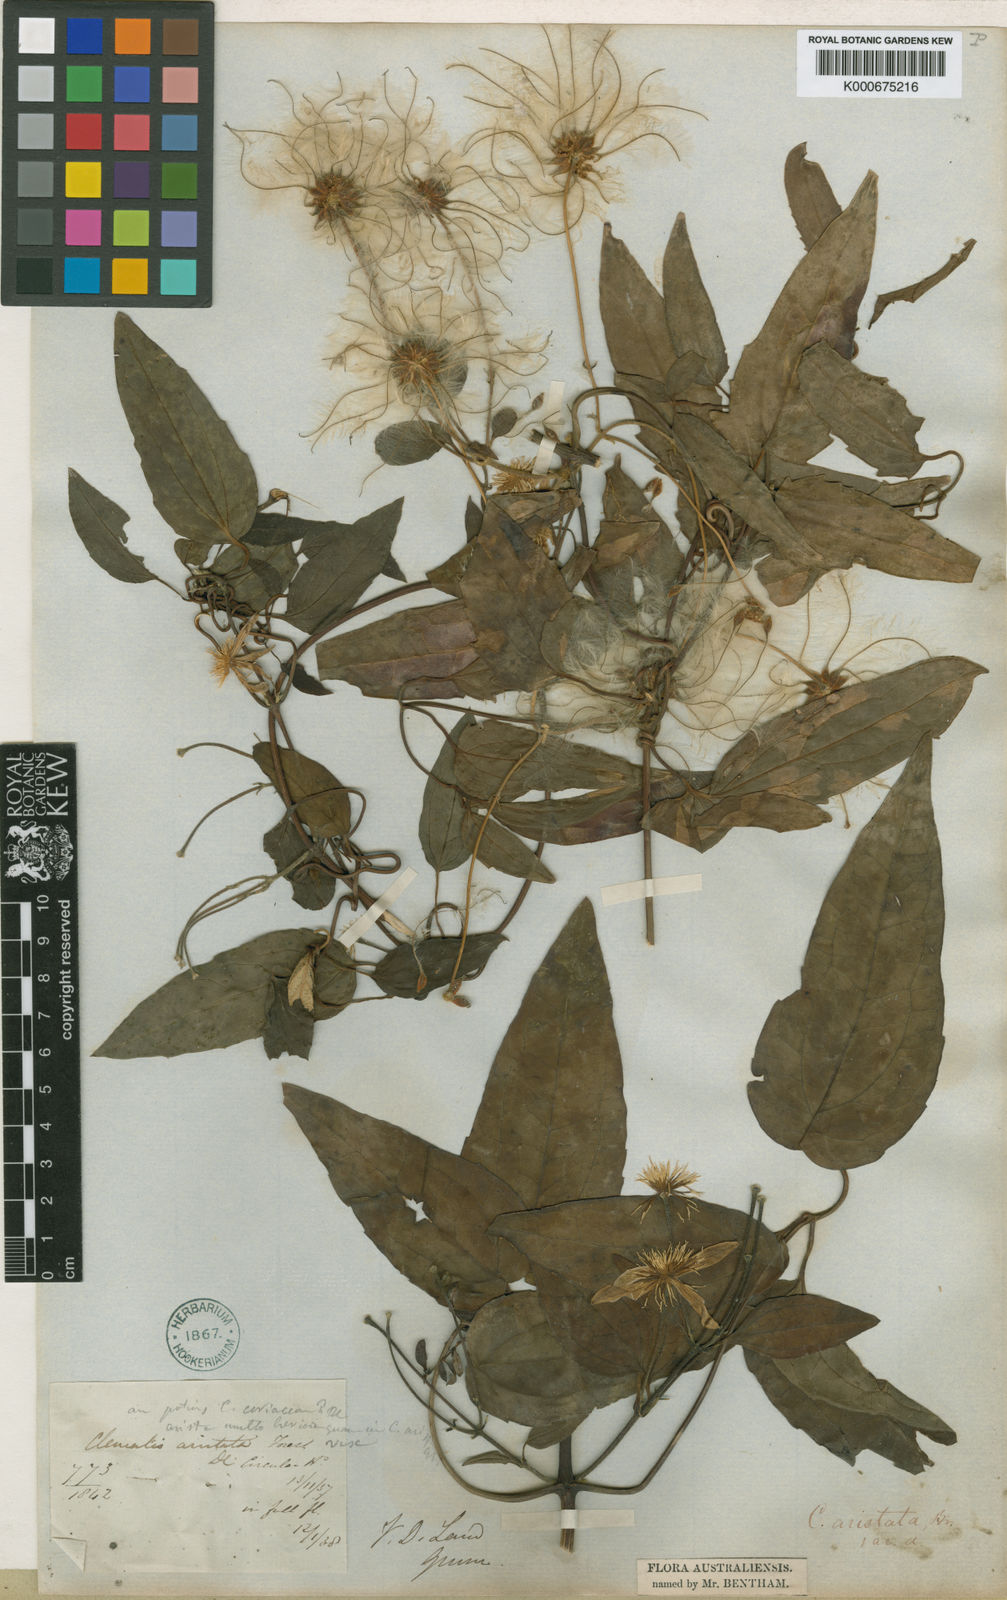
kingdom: Plantae
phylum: Tracheophyta
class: Magnoliopsida
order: Ranunculales
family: Ranunculaceae
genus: Clematis
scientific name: Clematis clitorioides
